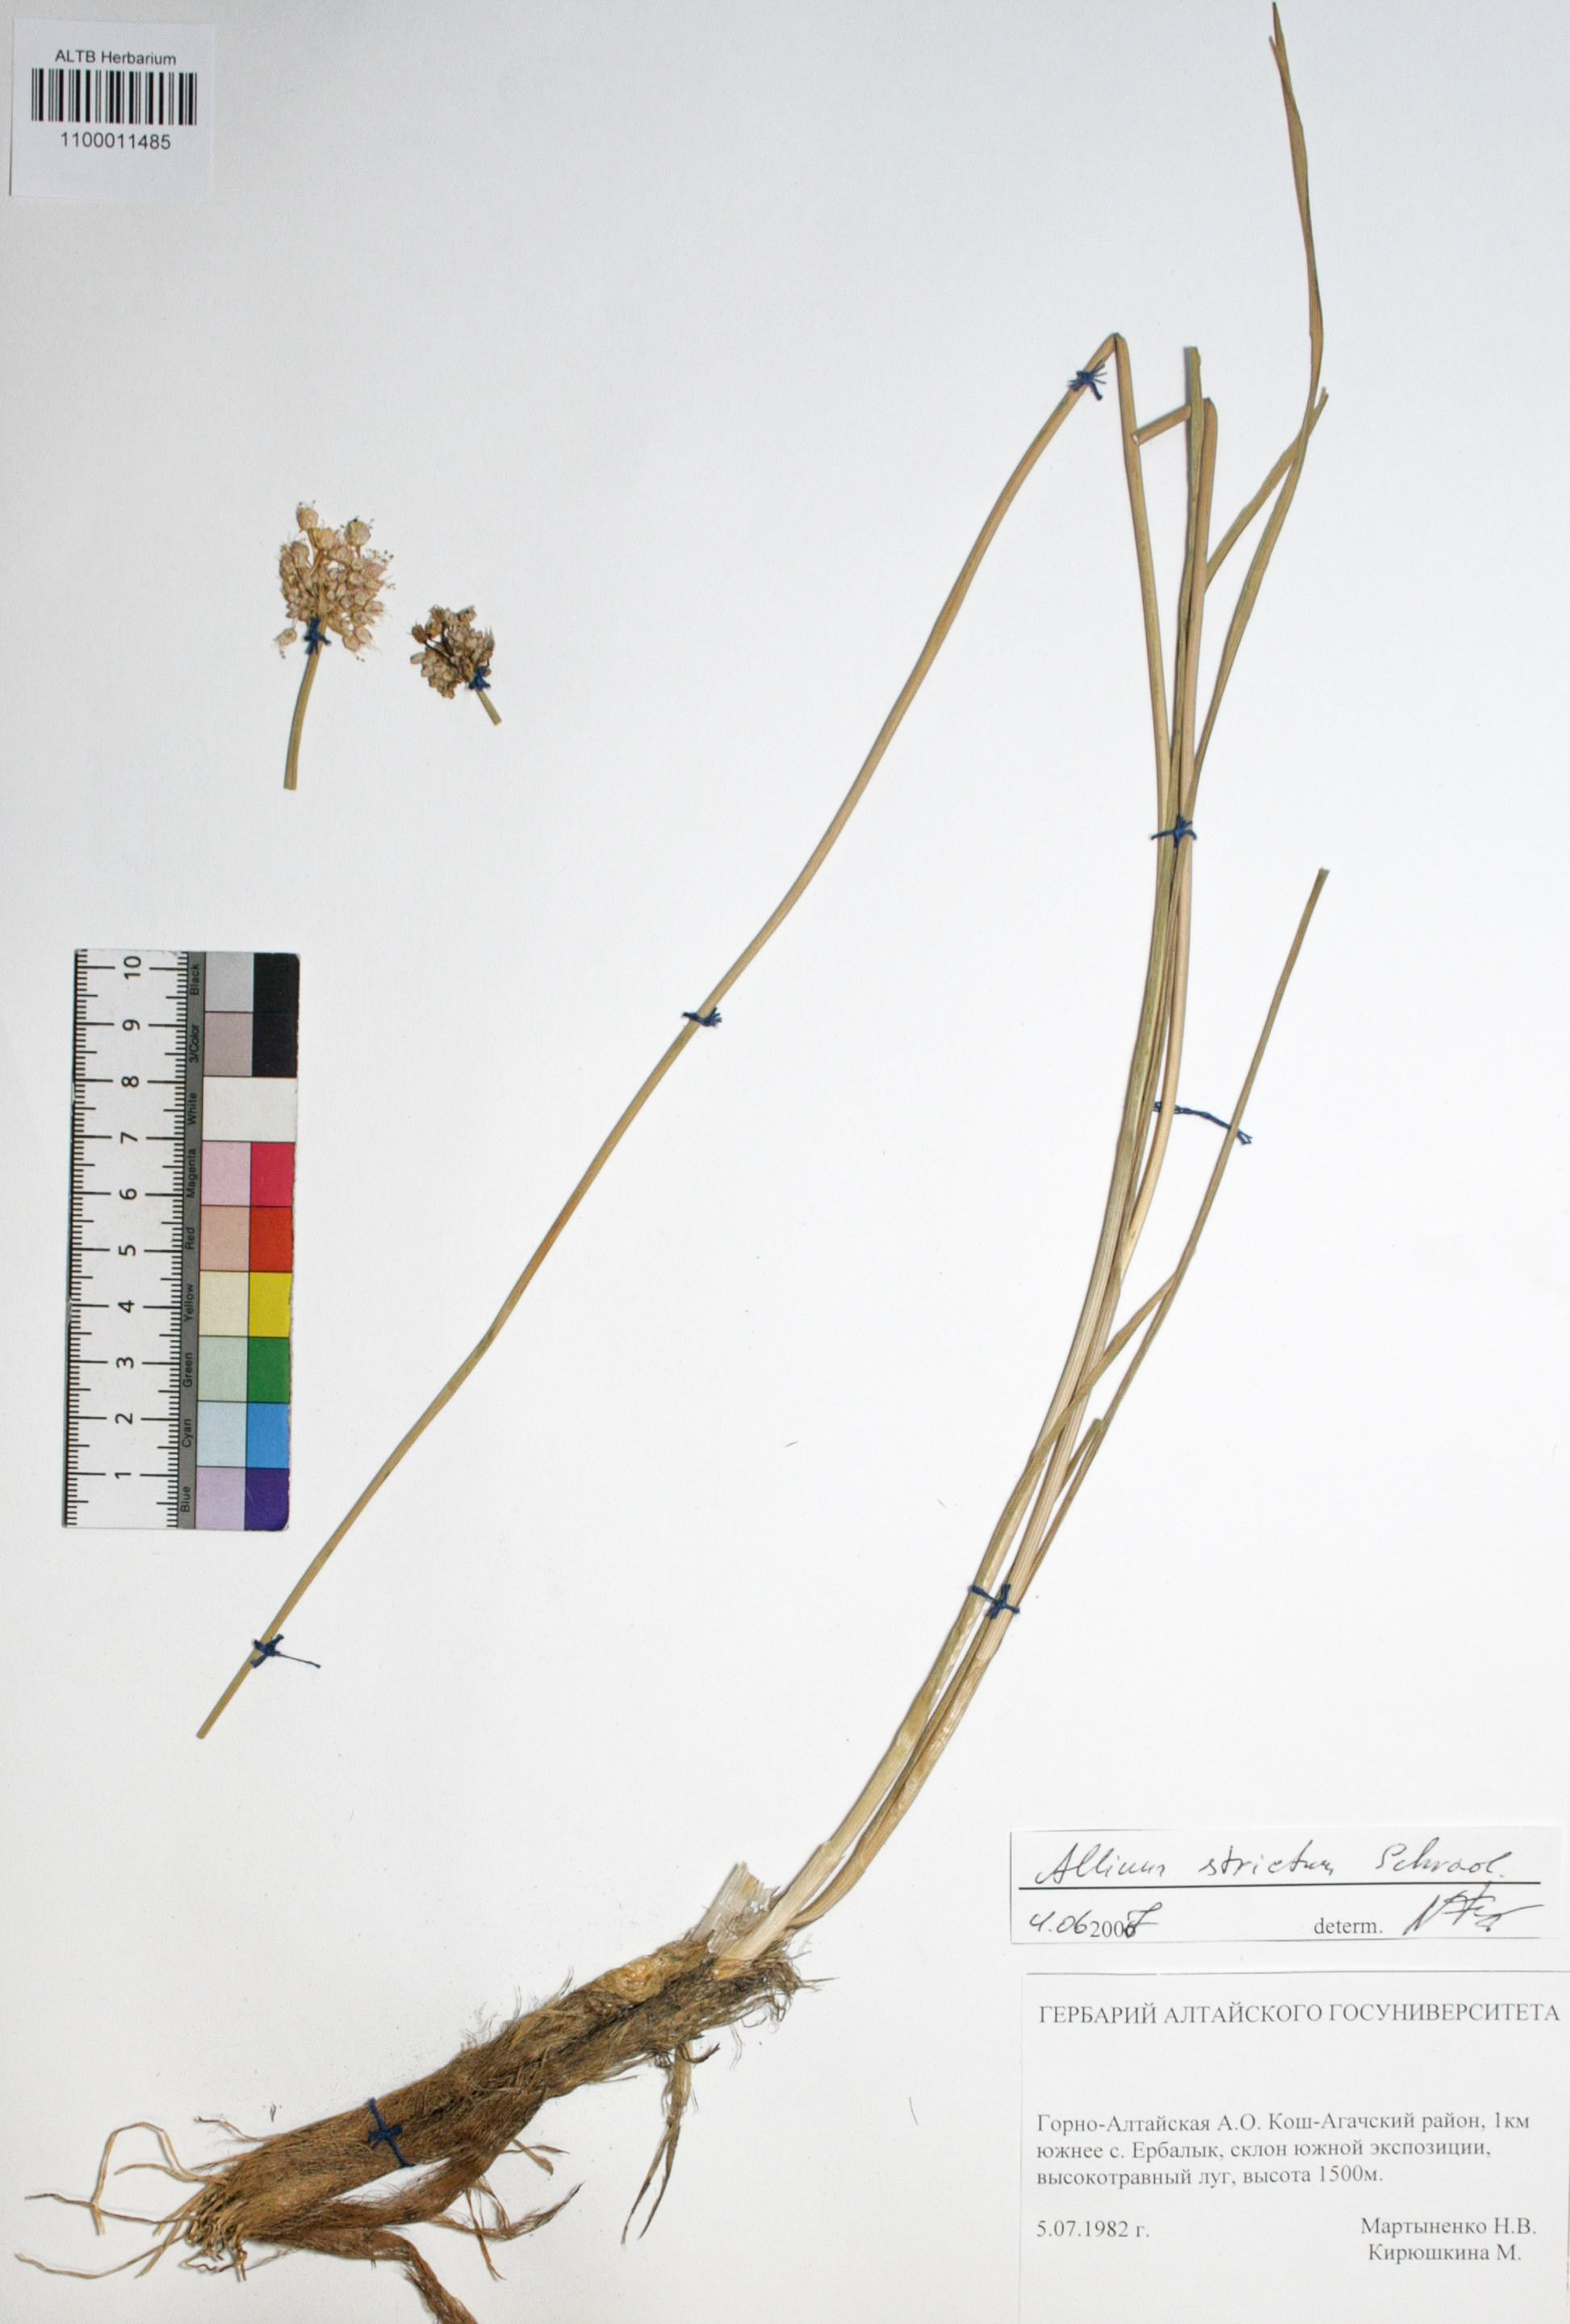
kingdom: Plantae
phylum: Tracheophyta
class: Liliopsida
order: Asparagales
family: Amaryllidaceae
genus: Allium
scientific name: Allium strictum
